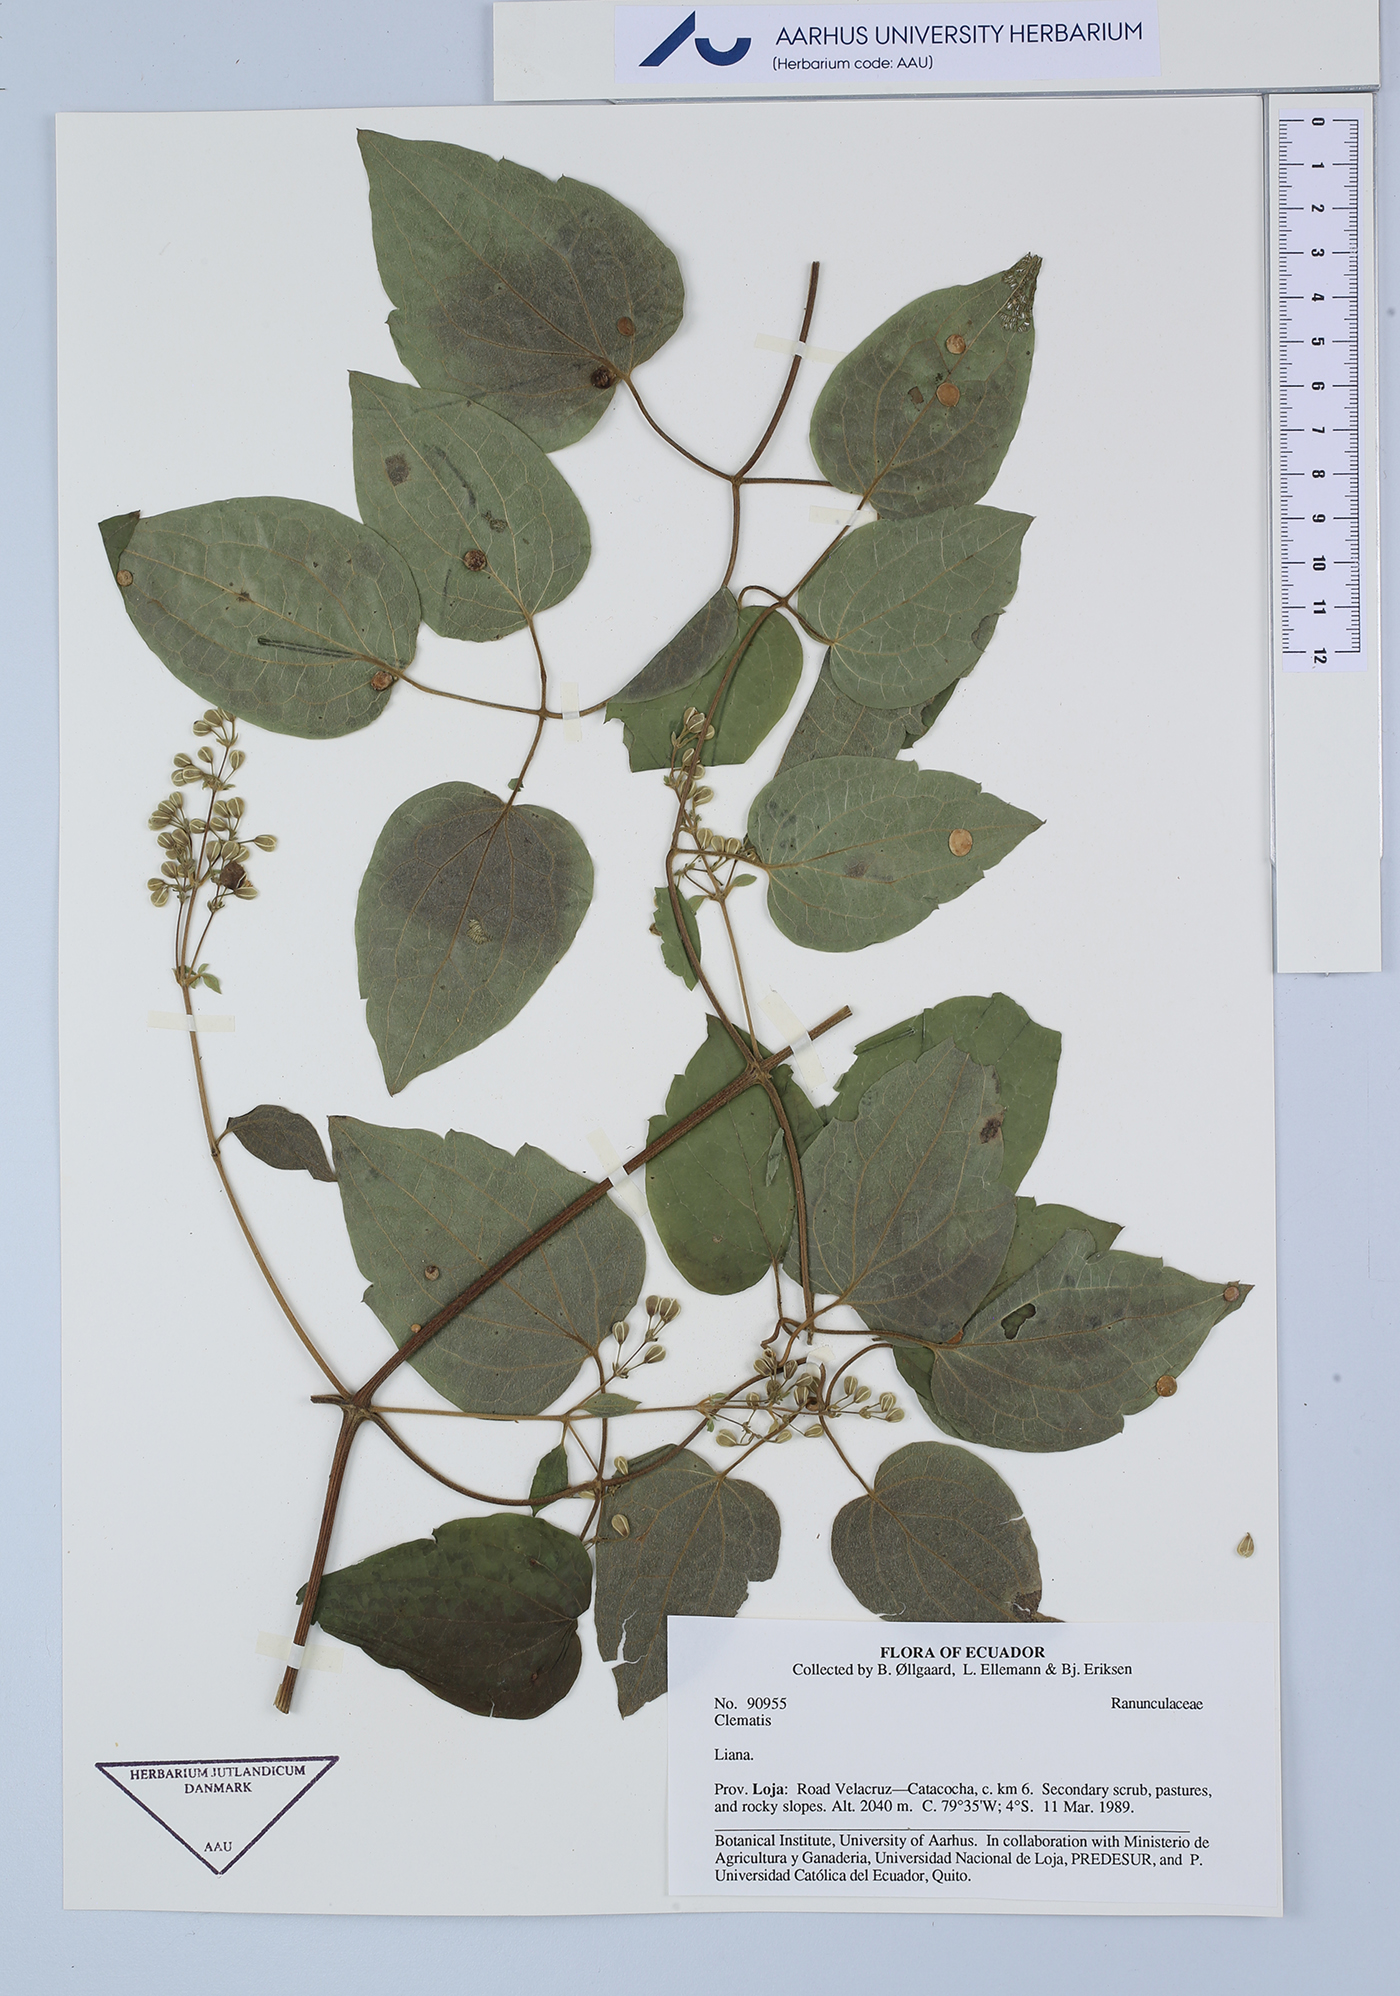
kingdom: Plantae
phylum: Tracheophyta
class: Magnoliopsida
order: Ranunculales
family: Ranunculaceae
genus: Clematis
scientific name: Clematis
